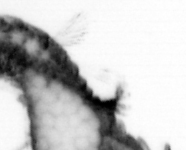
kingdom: Animalia
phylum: Annelida
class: Polychaeta
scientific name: Polychaeta
